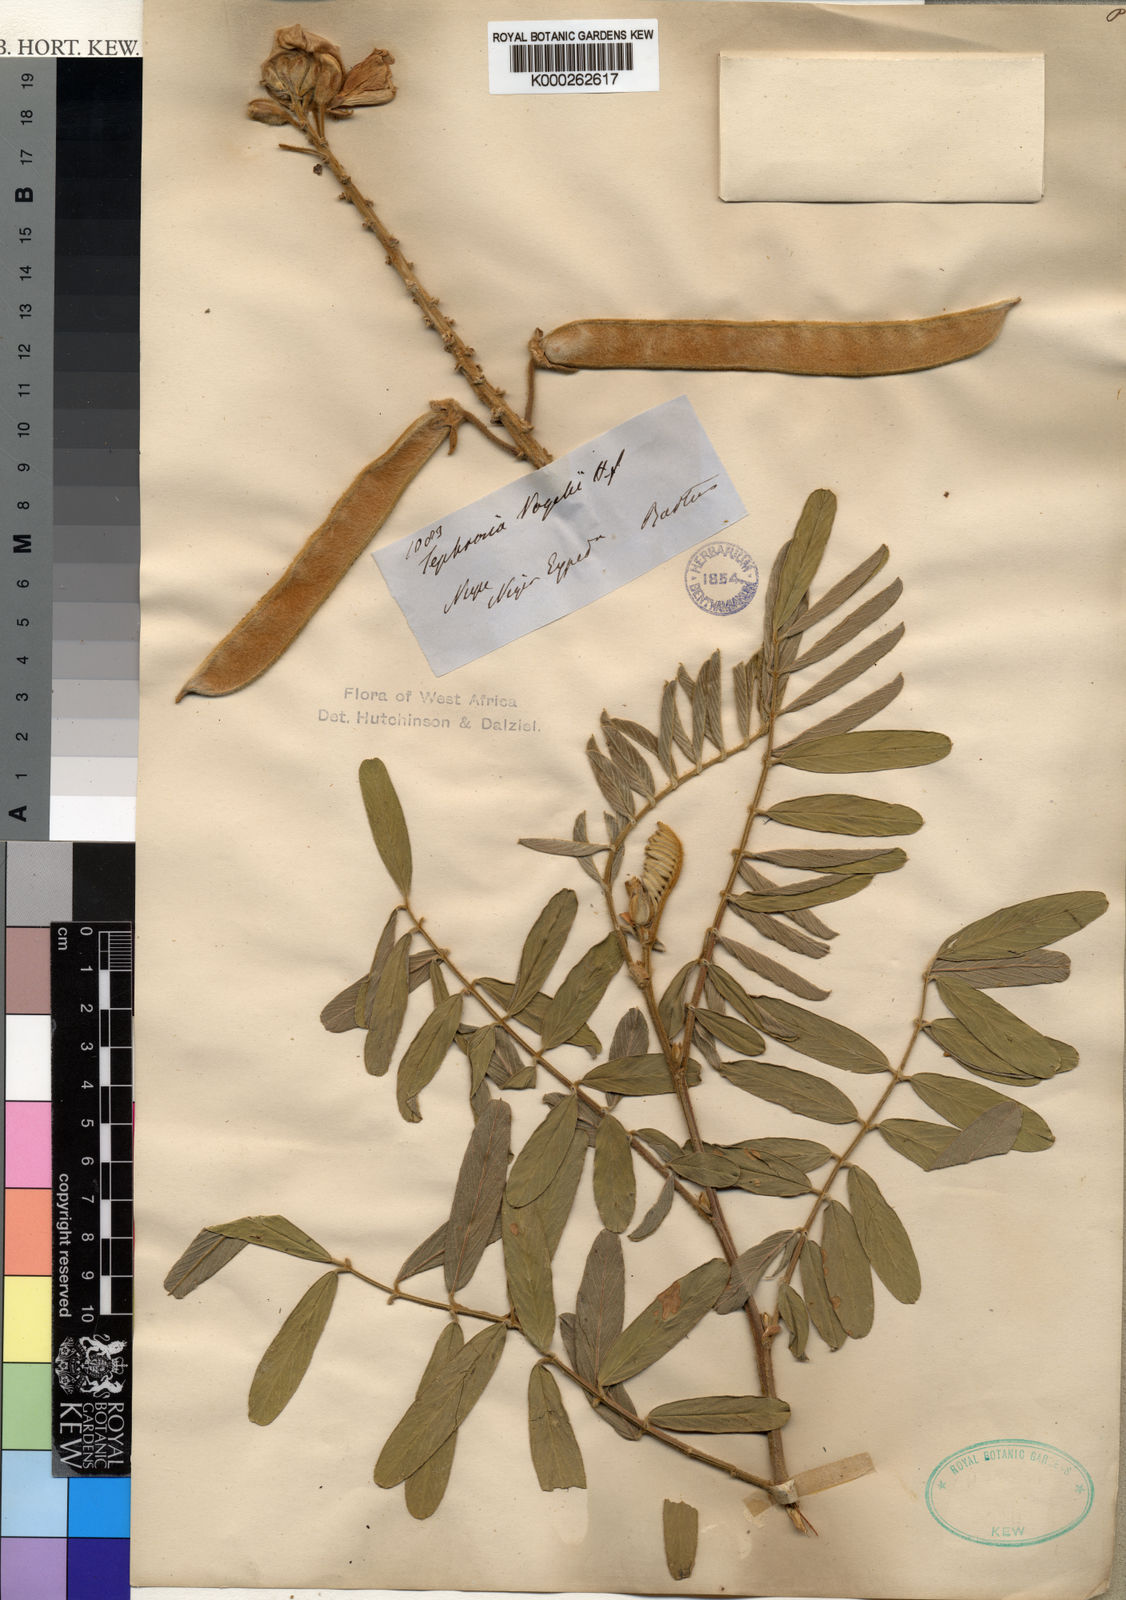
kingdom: Plantae
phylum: Tracheophyta
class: Magnoliopsida
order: Fabales
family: Fabaceae
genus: Tephrosia
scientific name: Tephrosia vogelii
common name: Vogel tephrosia
